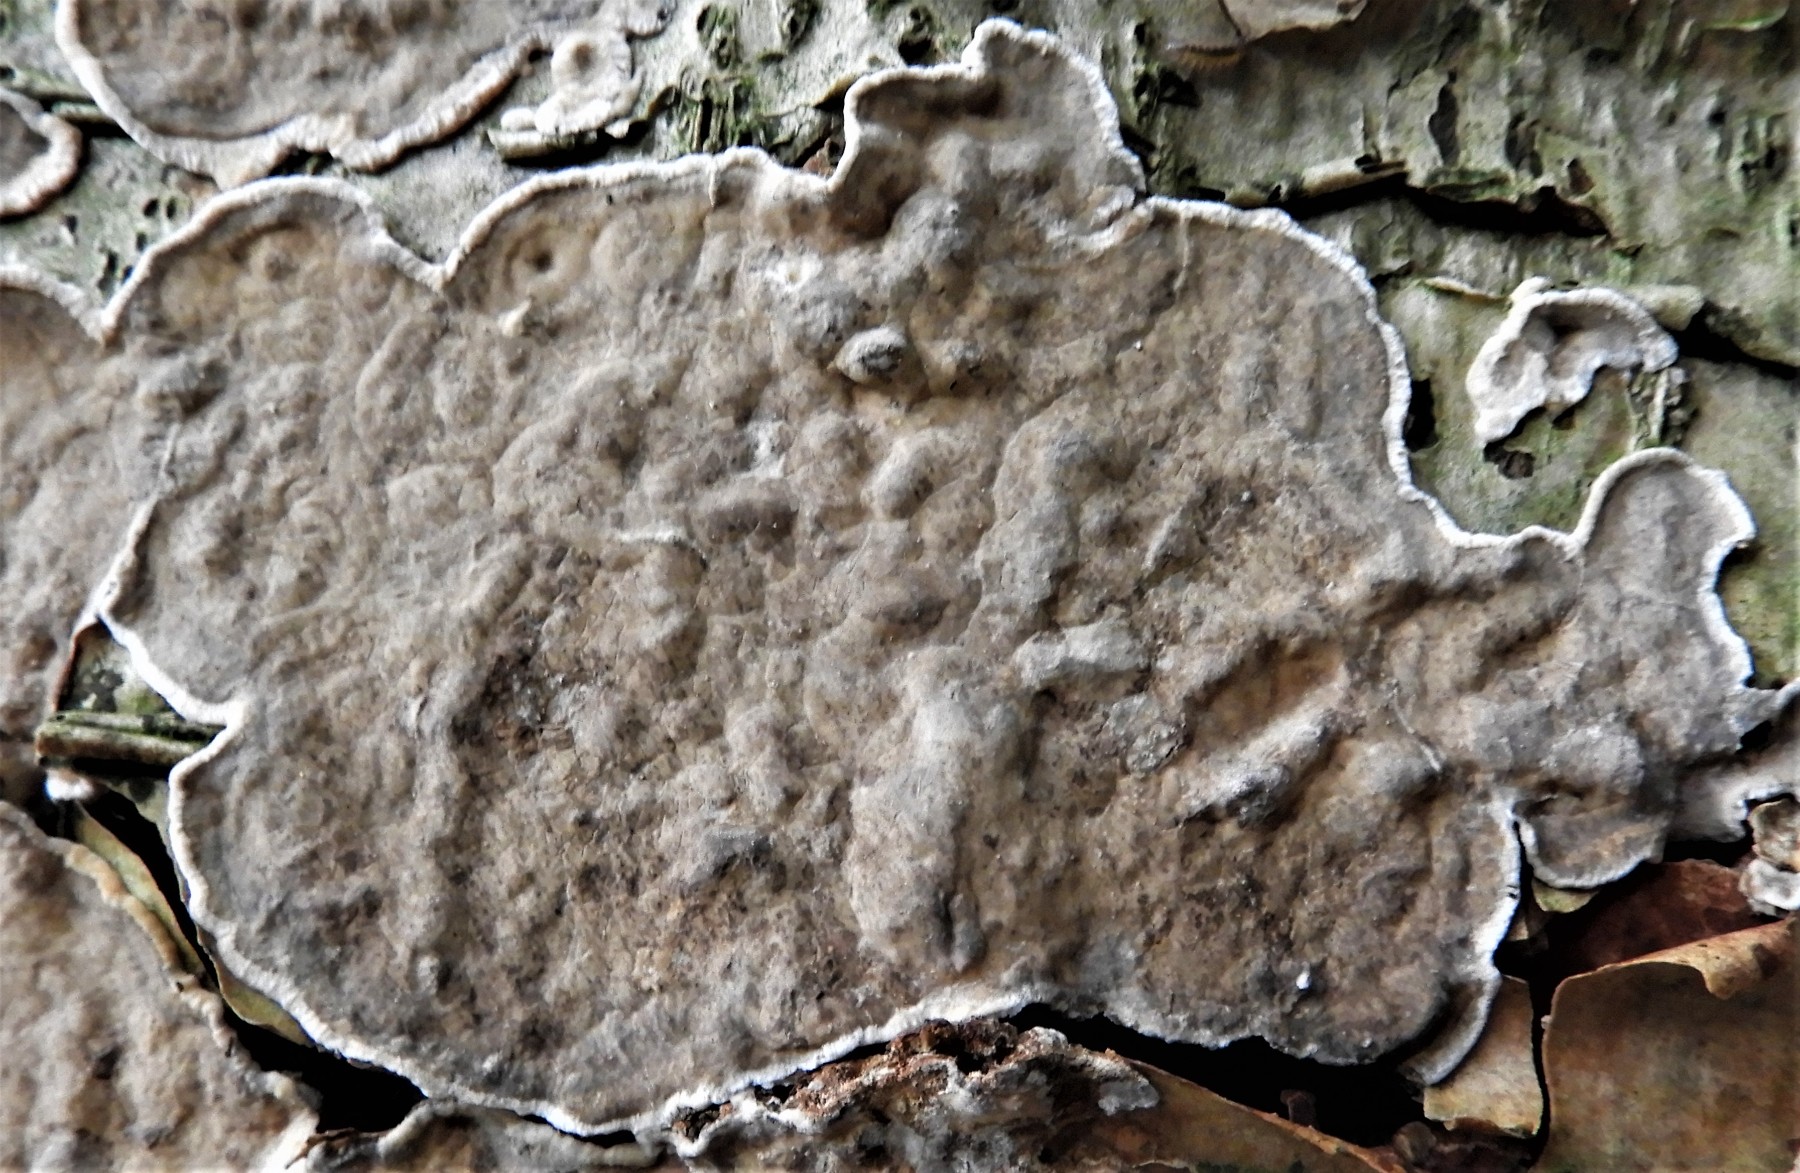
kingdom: Fungi
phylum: Basidiomycota
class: Agaricomycetes
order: Agaricales
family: Physalacriaceae
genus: Cylindrobasidium
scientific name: Cylindrobasidium evolvens
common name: sprækkehinde
